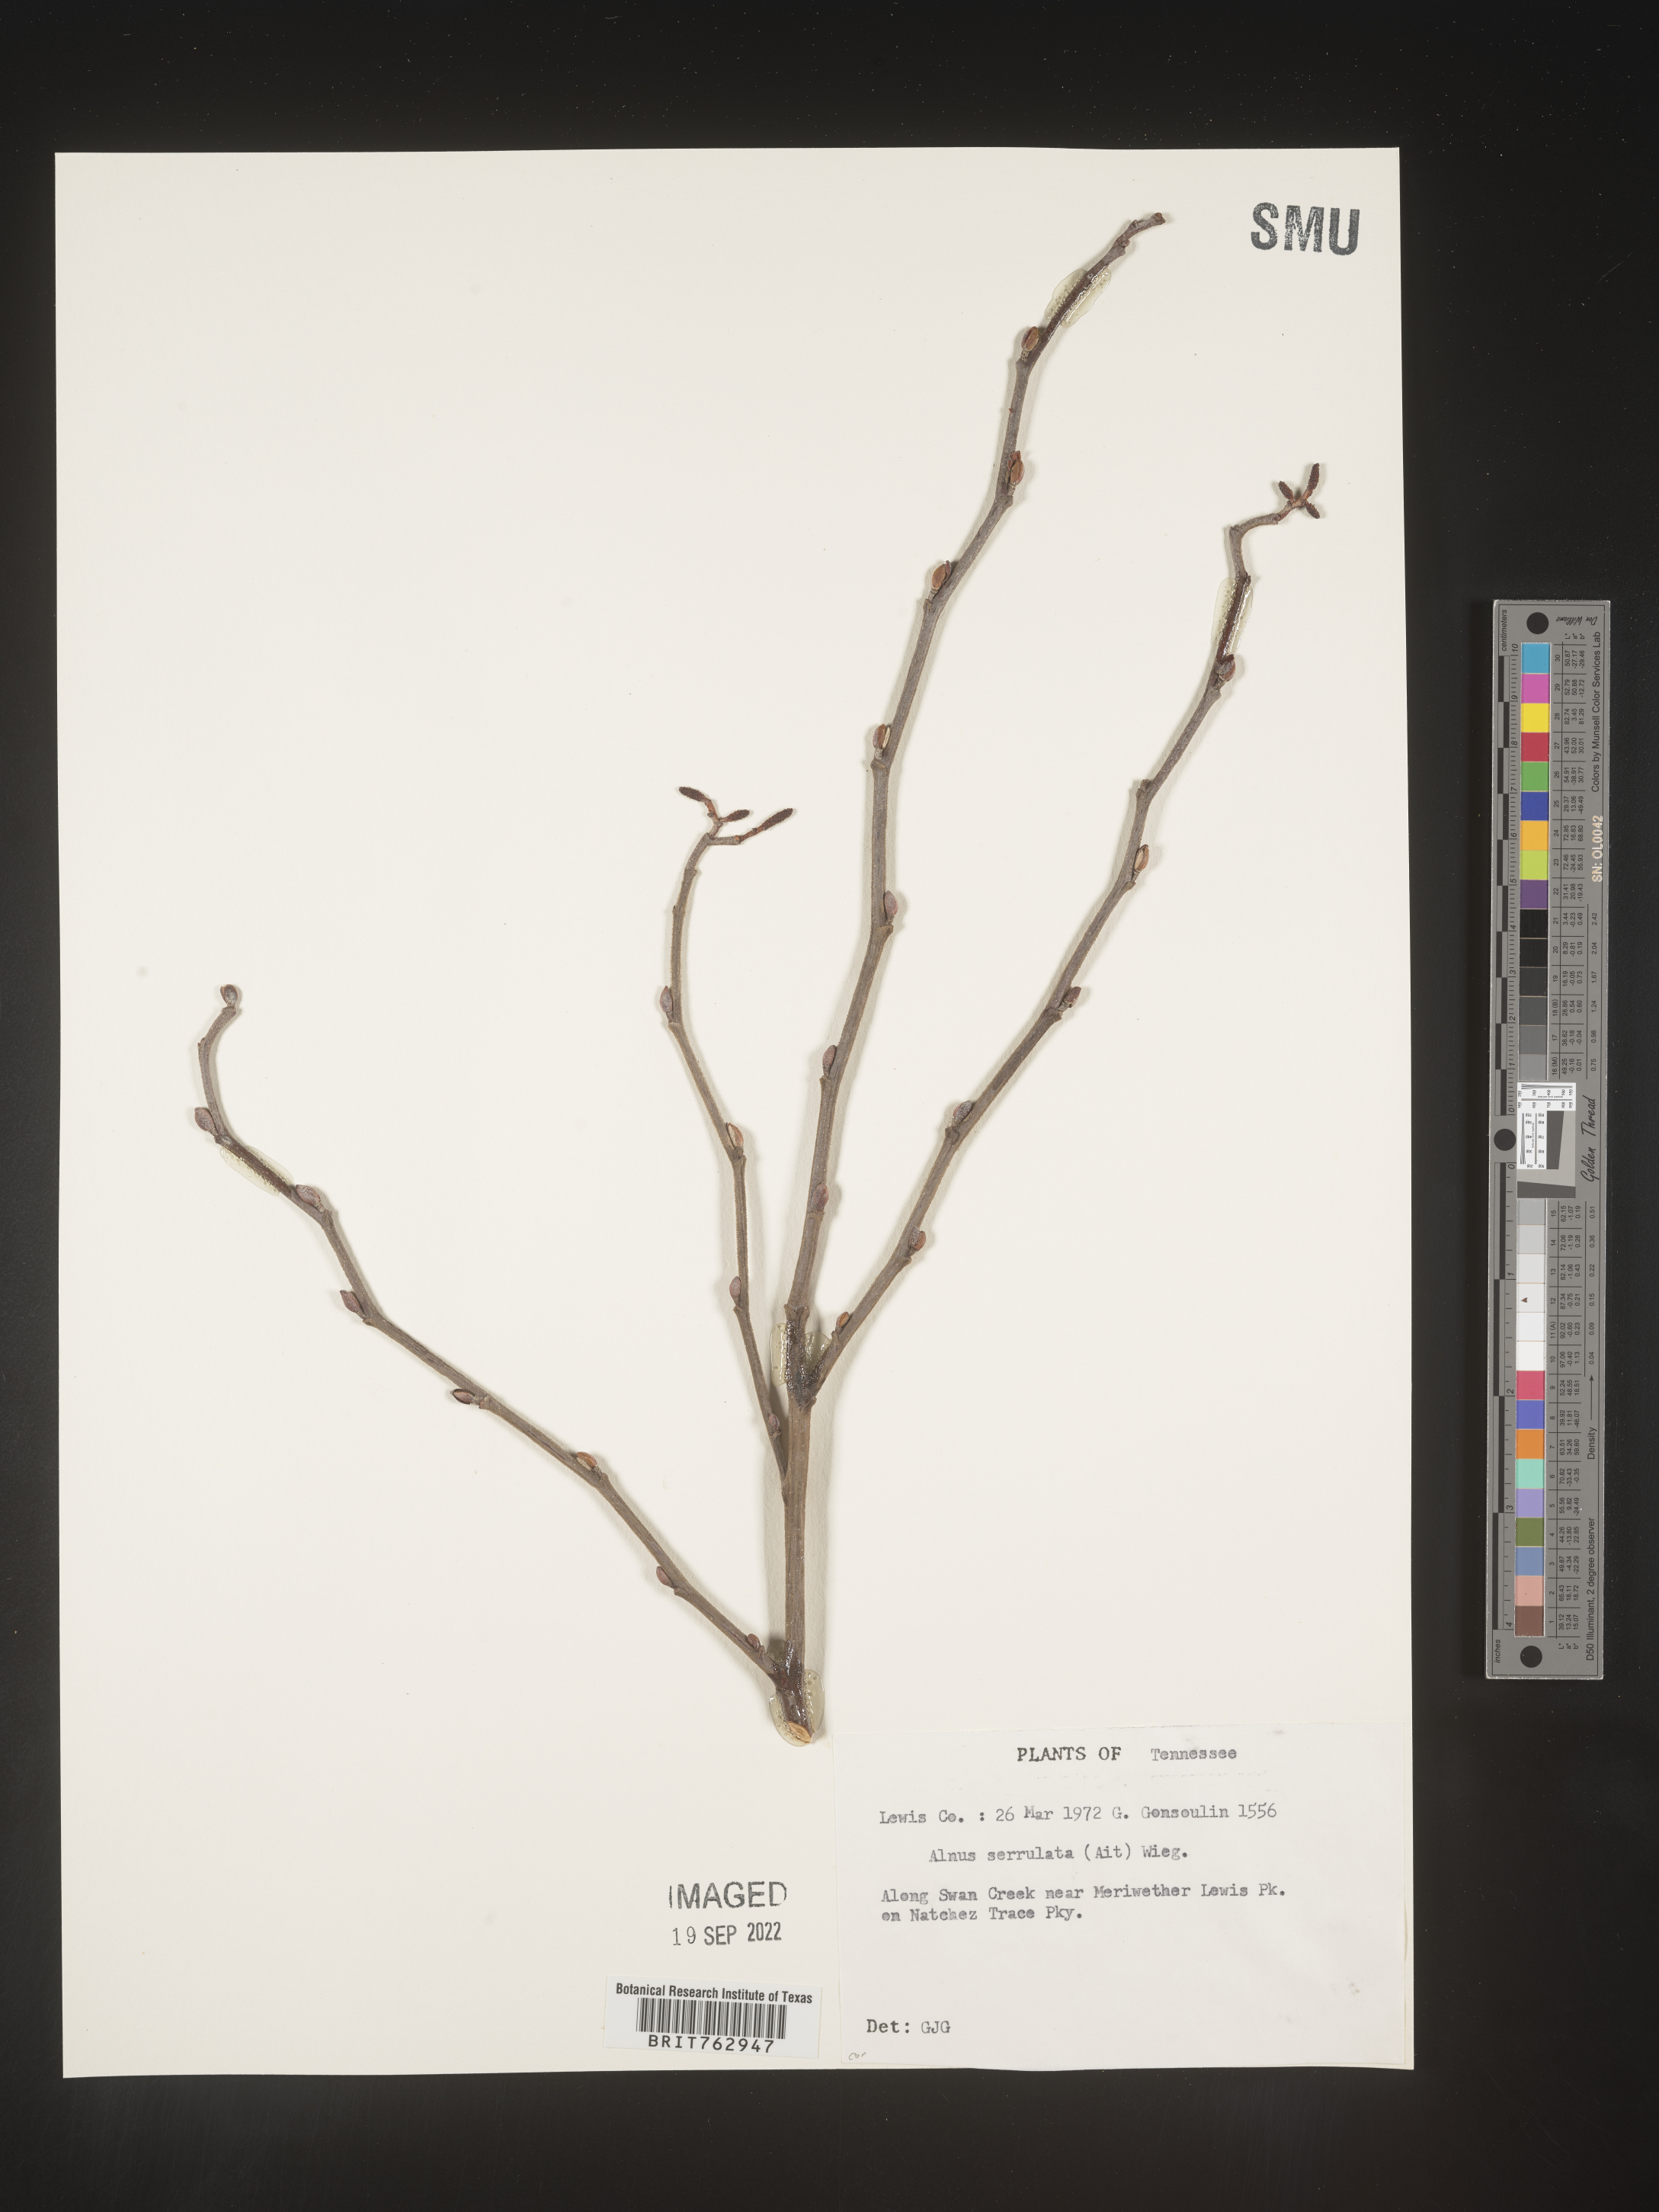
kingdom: Plantae
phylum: Tracheophyta
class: Magnoliopsida
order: Fagales
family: Betulaceae
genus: Alnus
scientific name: Alnus serrulata
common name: Hazel alder
